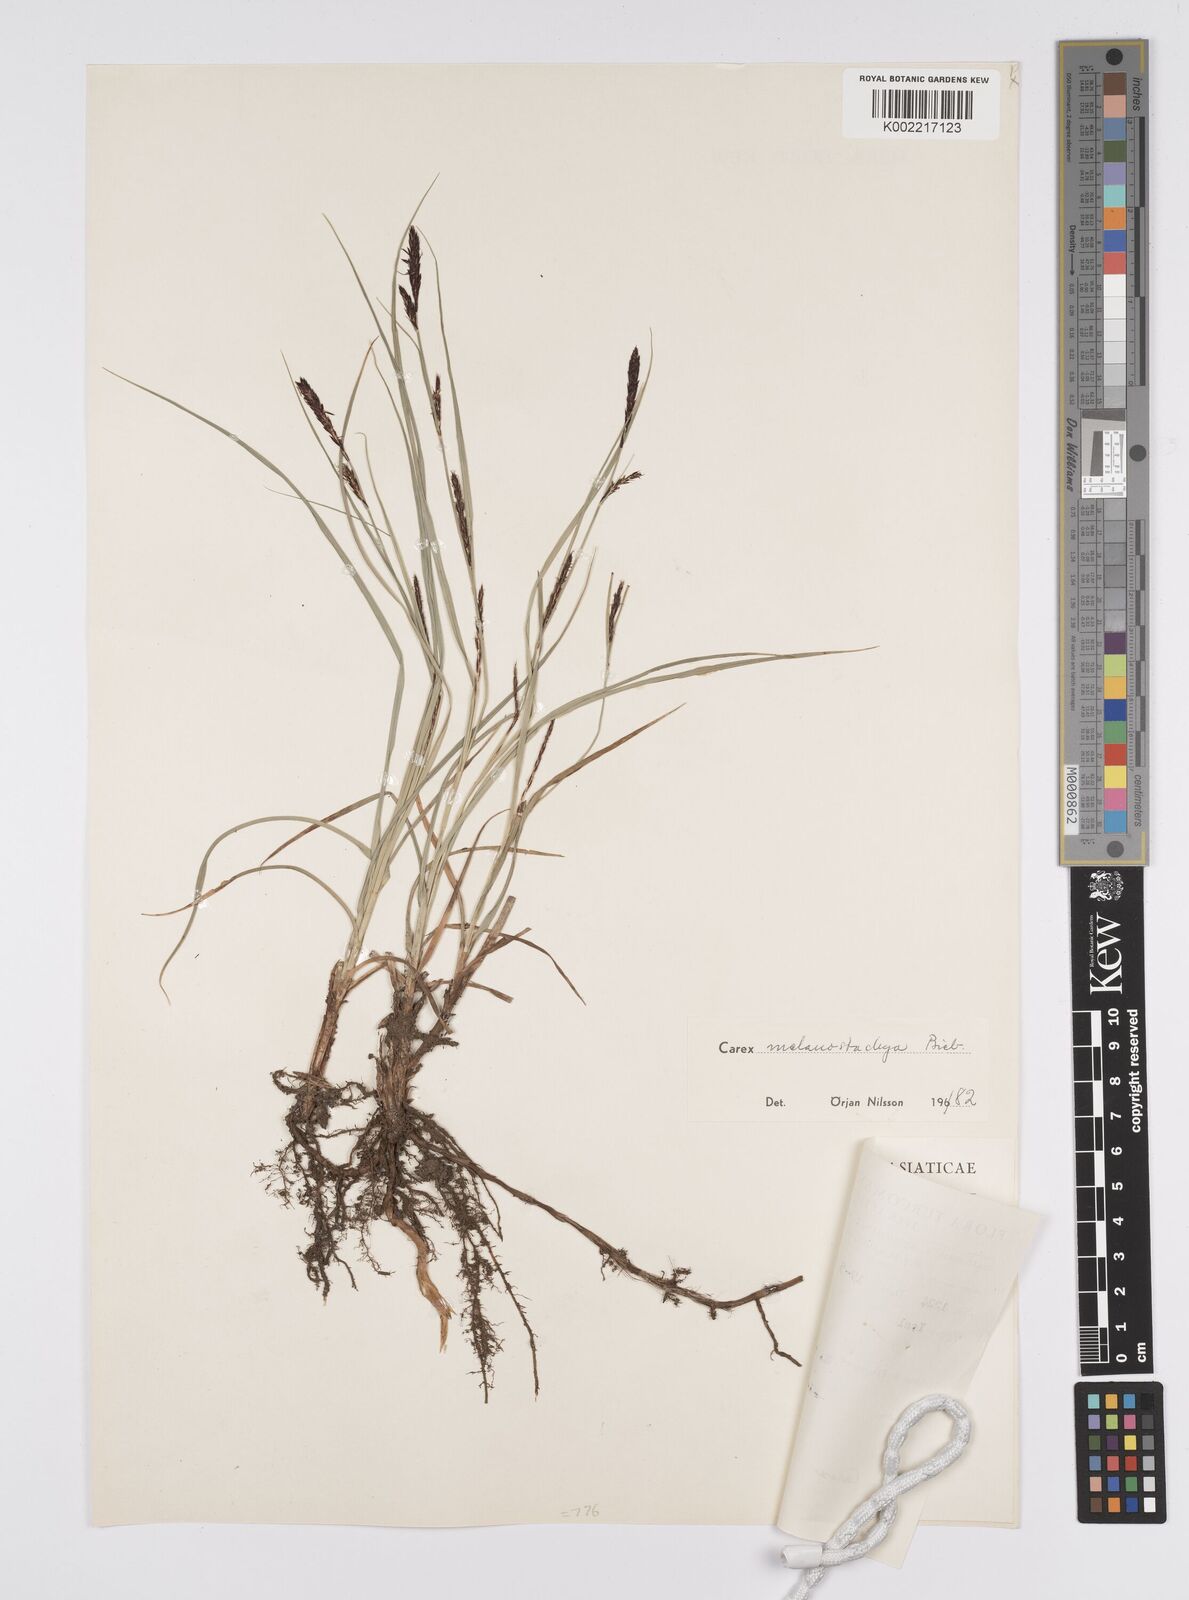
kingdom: Plantae
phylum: Tracheophyta
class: Liliopsida
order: Poales
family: Cyperaceae
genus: Carex
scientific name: Carex melanostachya
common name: Black-spiked sedge
